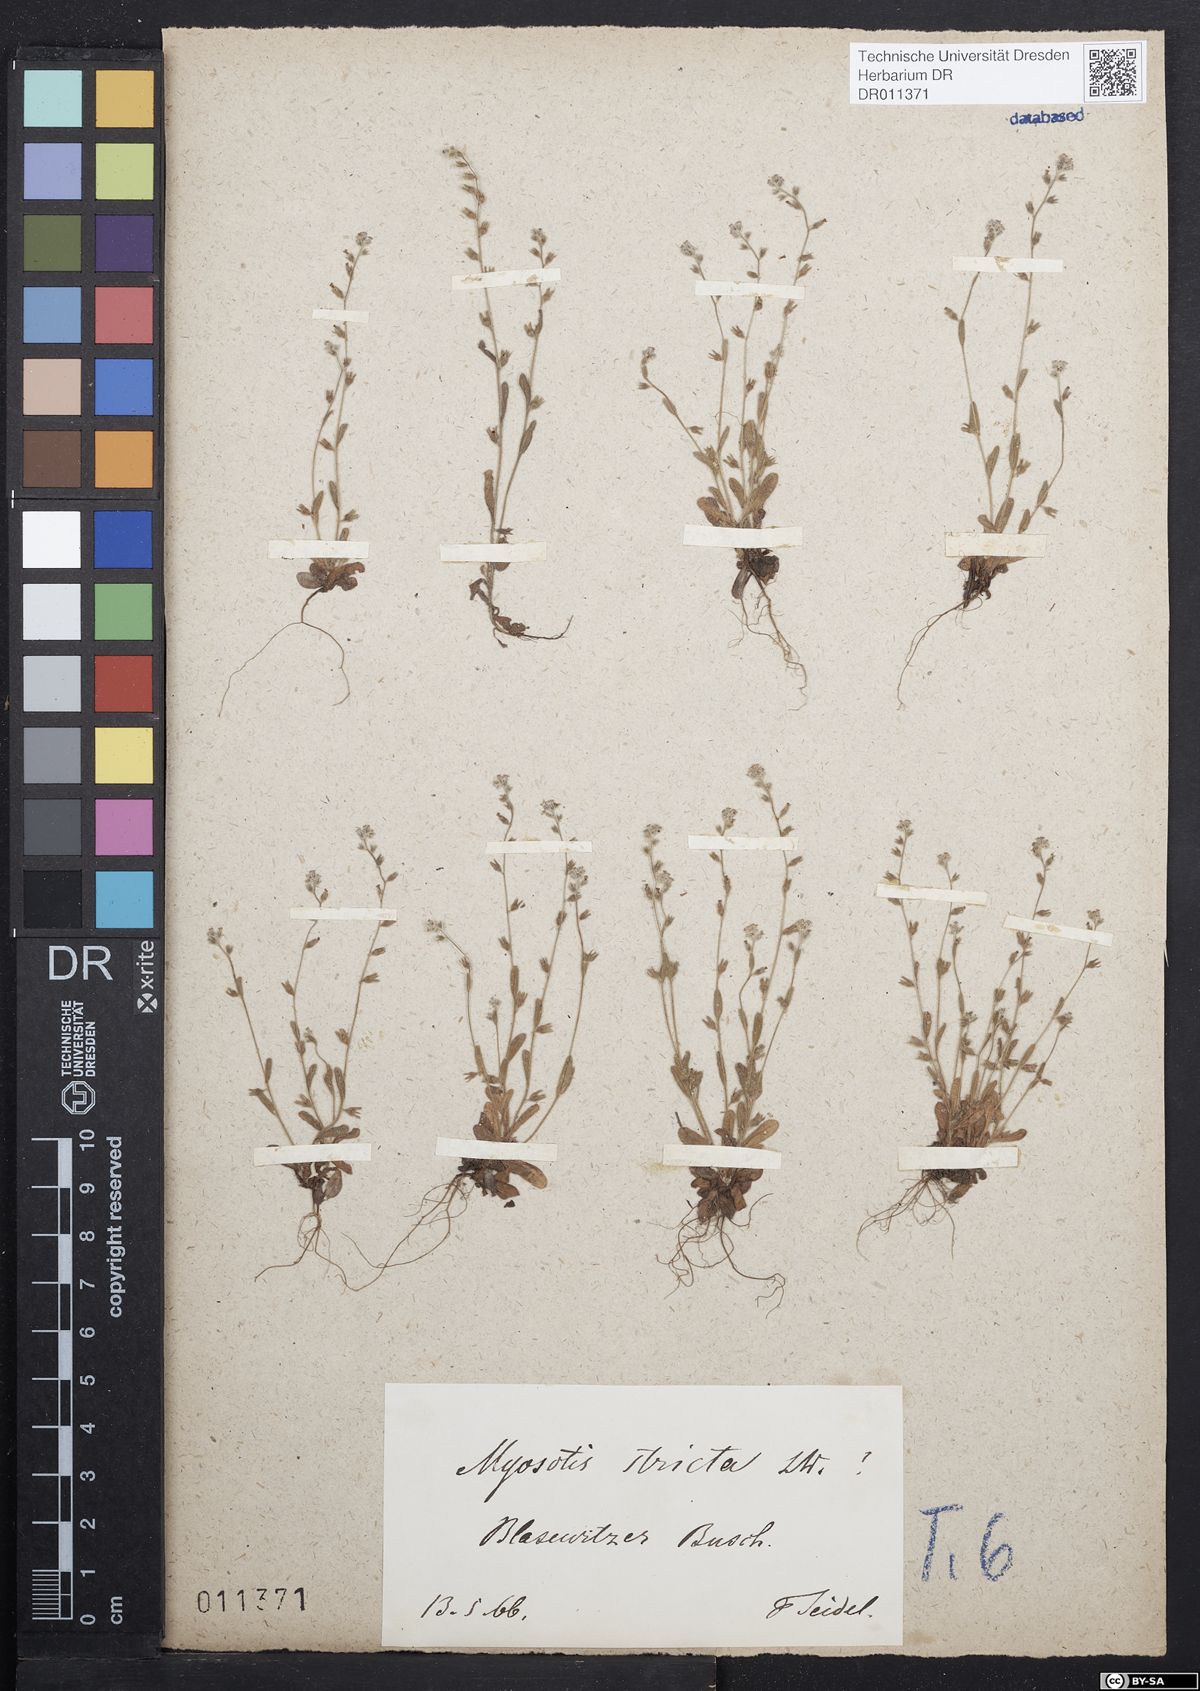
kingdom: Plantae
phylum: Tracheophyta
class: Magnoliopsida
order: Boraginales
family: Boraginaceae
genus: Myosotis
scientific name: Myosotis stricta
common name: Strict forget-me-not
